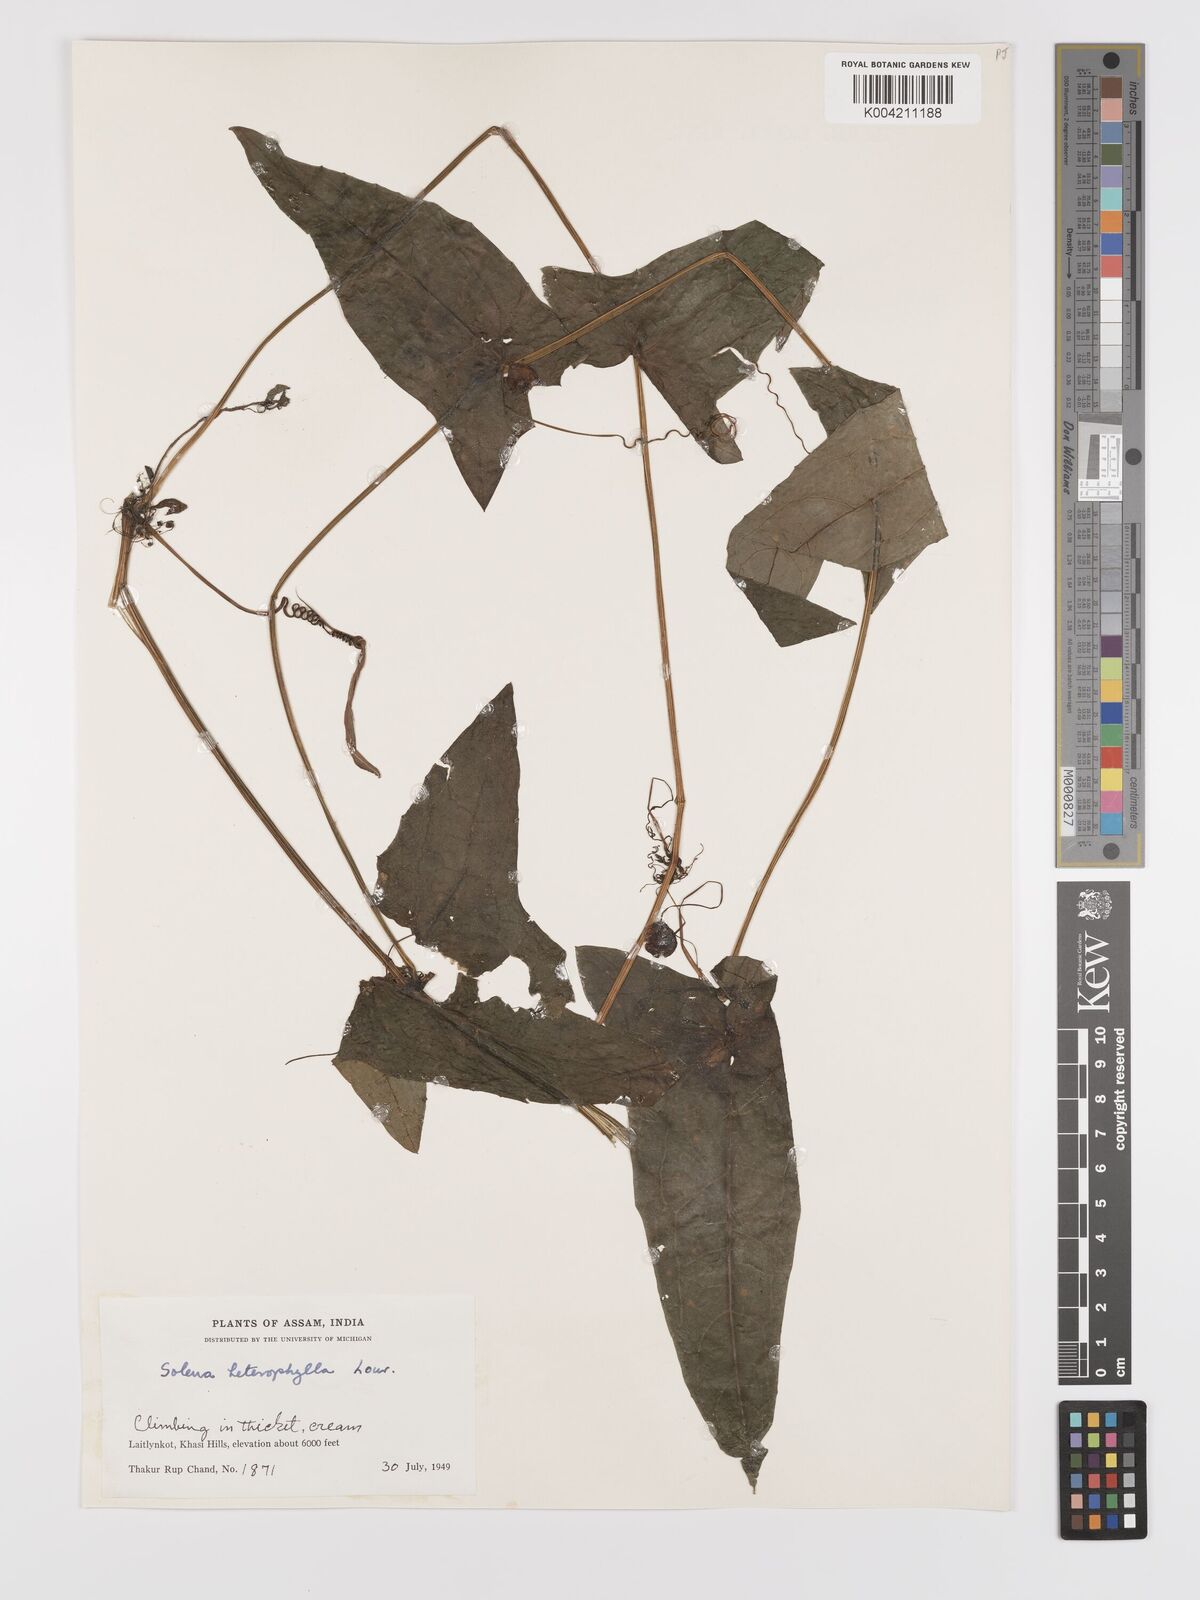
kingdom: Plantae
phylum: Tracheophyta
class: Magnoliopsida
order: Cucurbitales
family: Cucurbitaceae
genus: Solena
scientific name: Solena amplexicaulis
